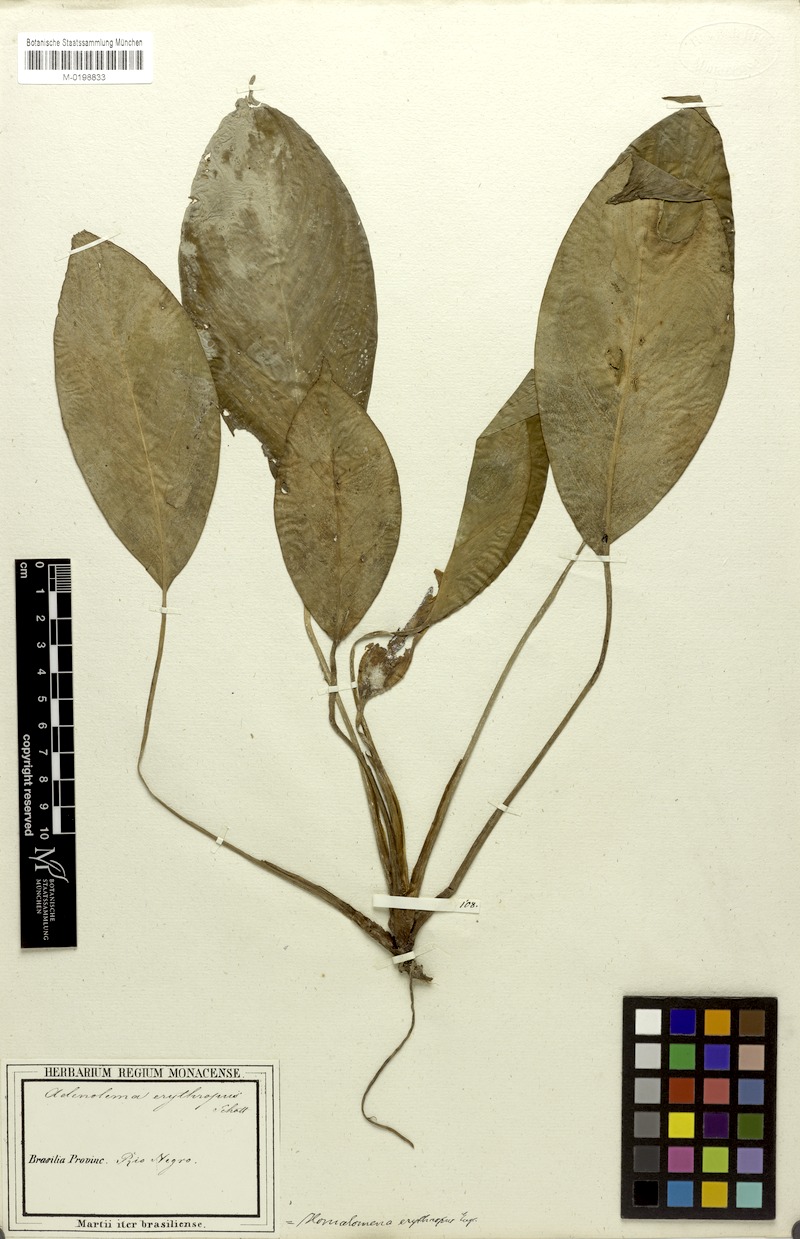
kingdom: Plantae
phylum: Tracheophyta
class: Liliopsida
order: Alismatales
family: Araceae
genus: Adelonema
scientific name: Adelonema erythropus
